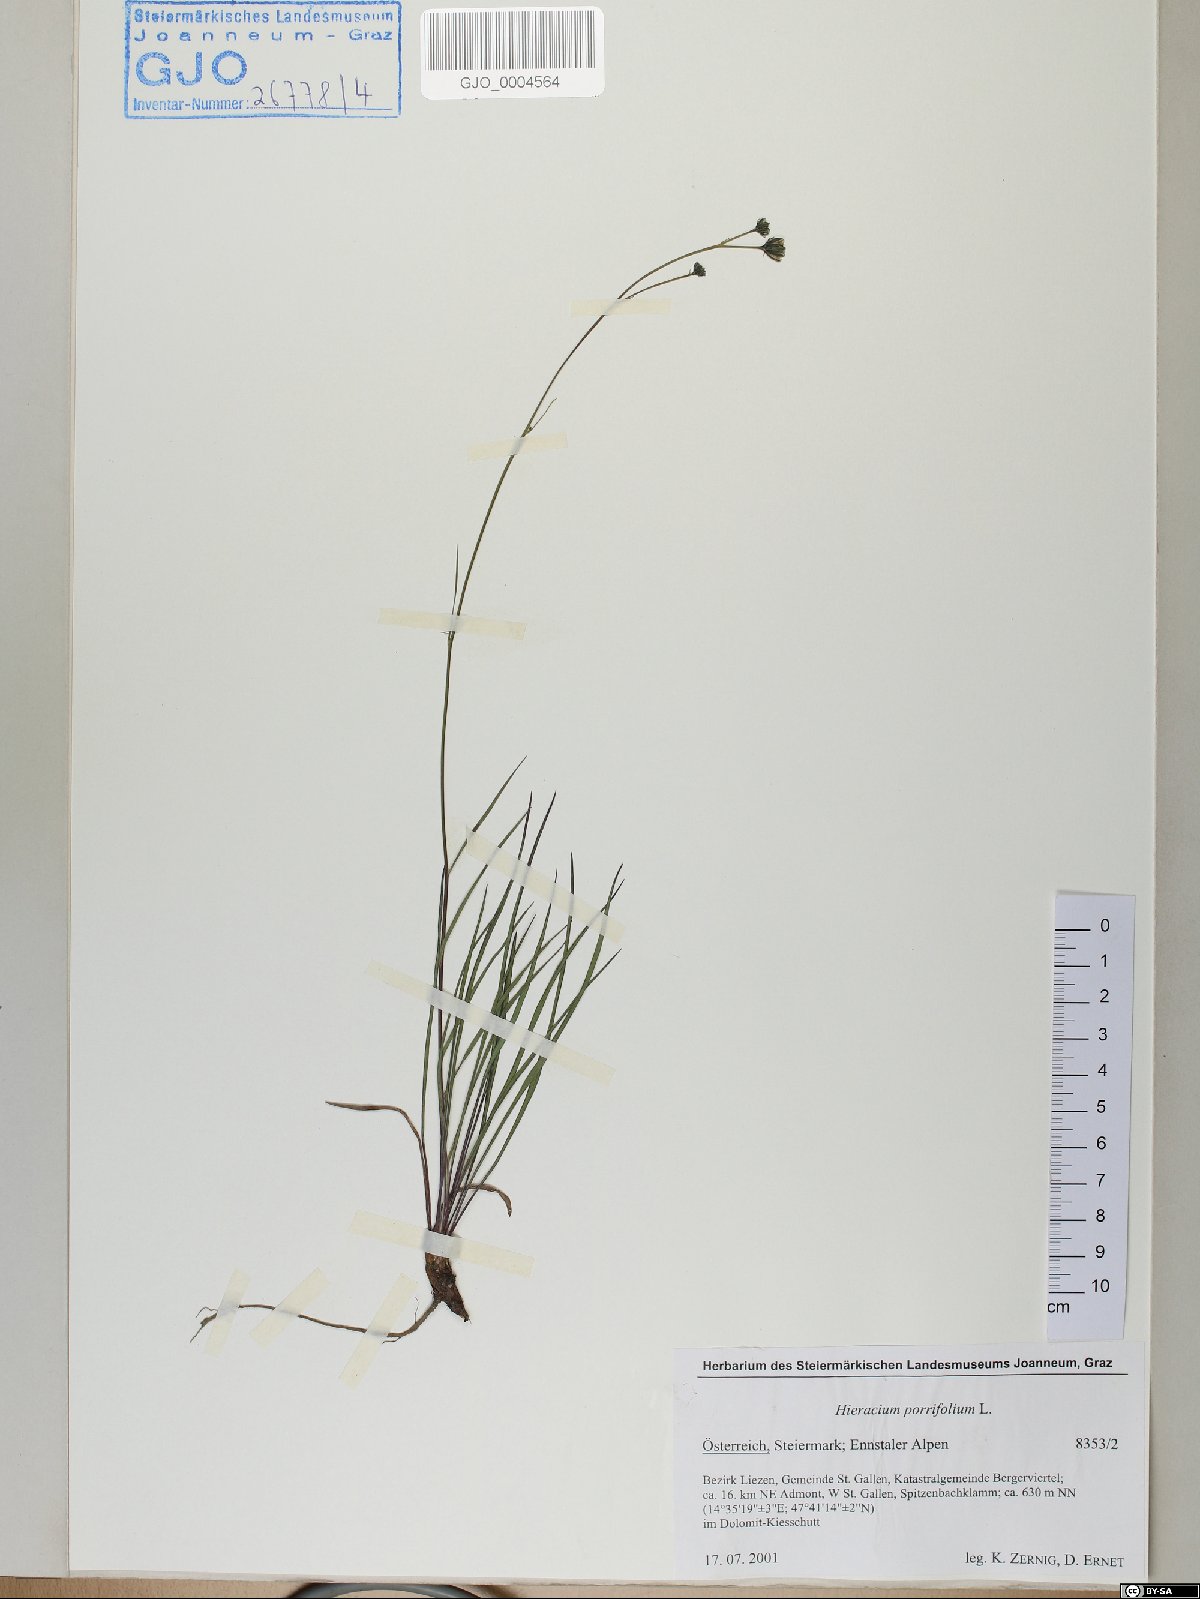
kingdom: Plantae
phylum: Tracheophyta
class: Magnoliopsida
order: Asterales
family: Asteraceae
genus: Hieracium
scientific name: Hieracium porrifolium
